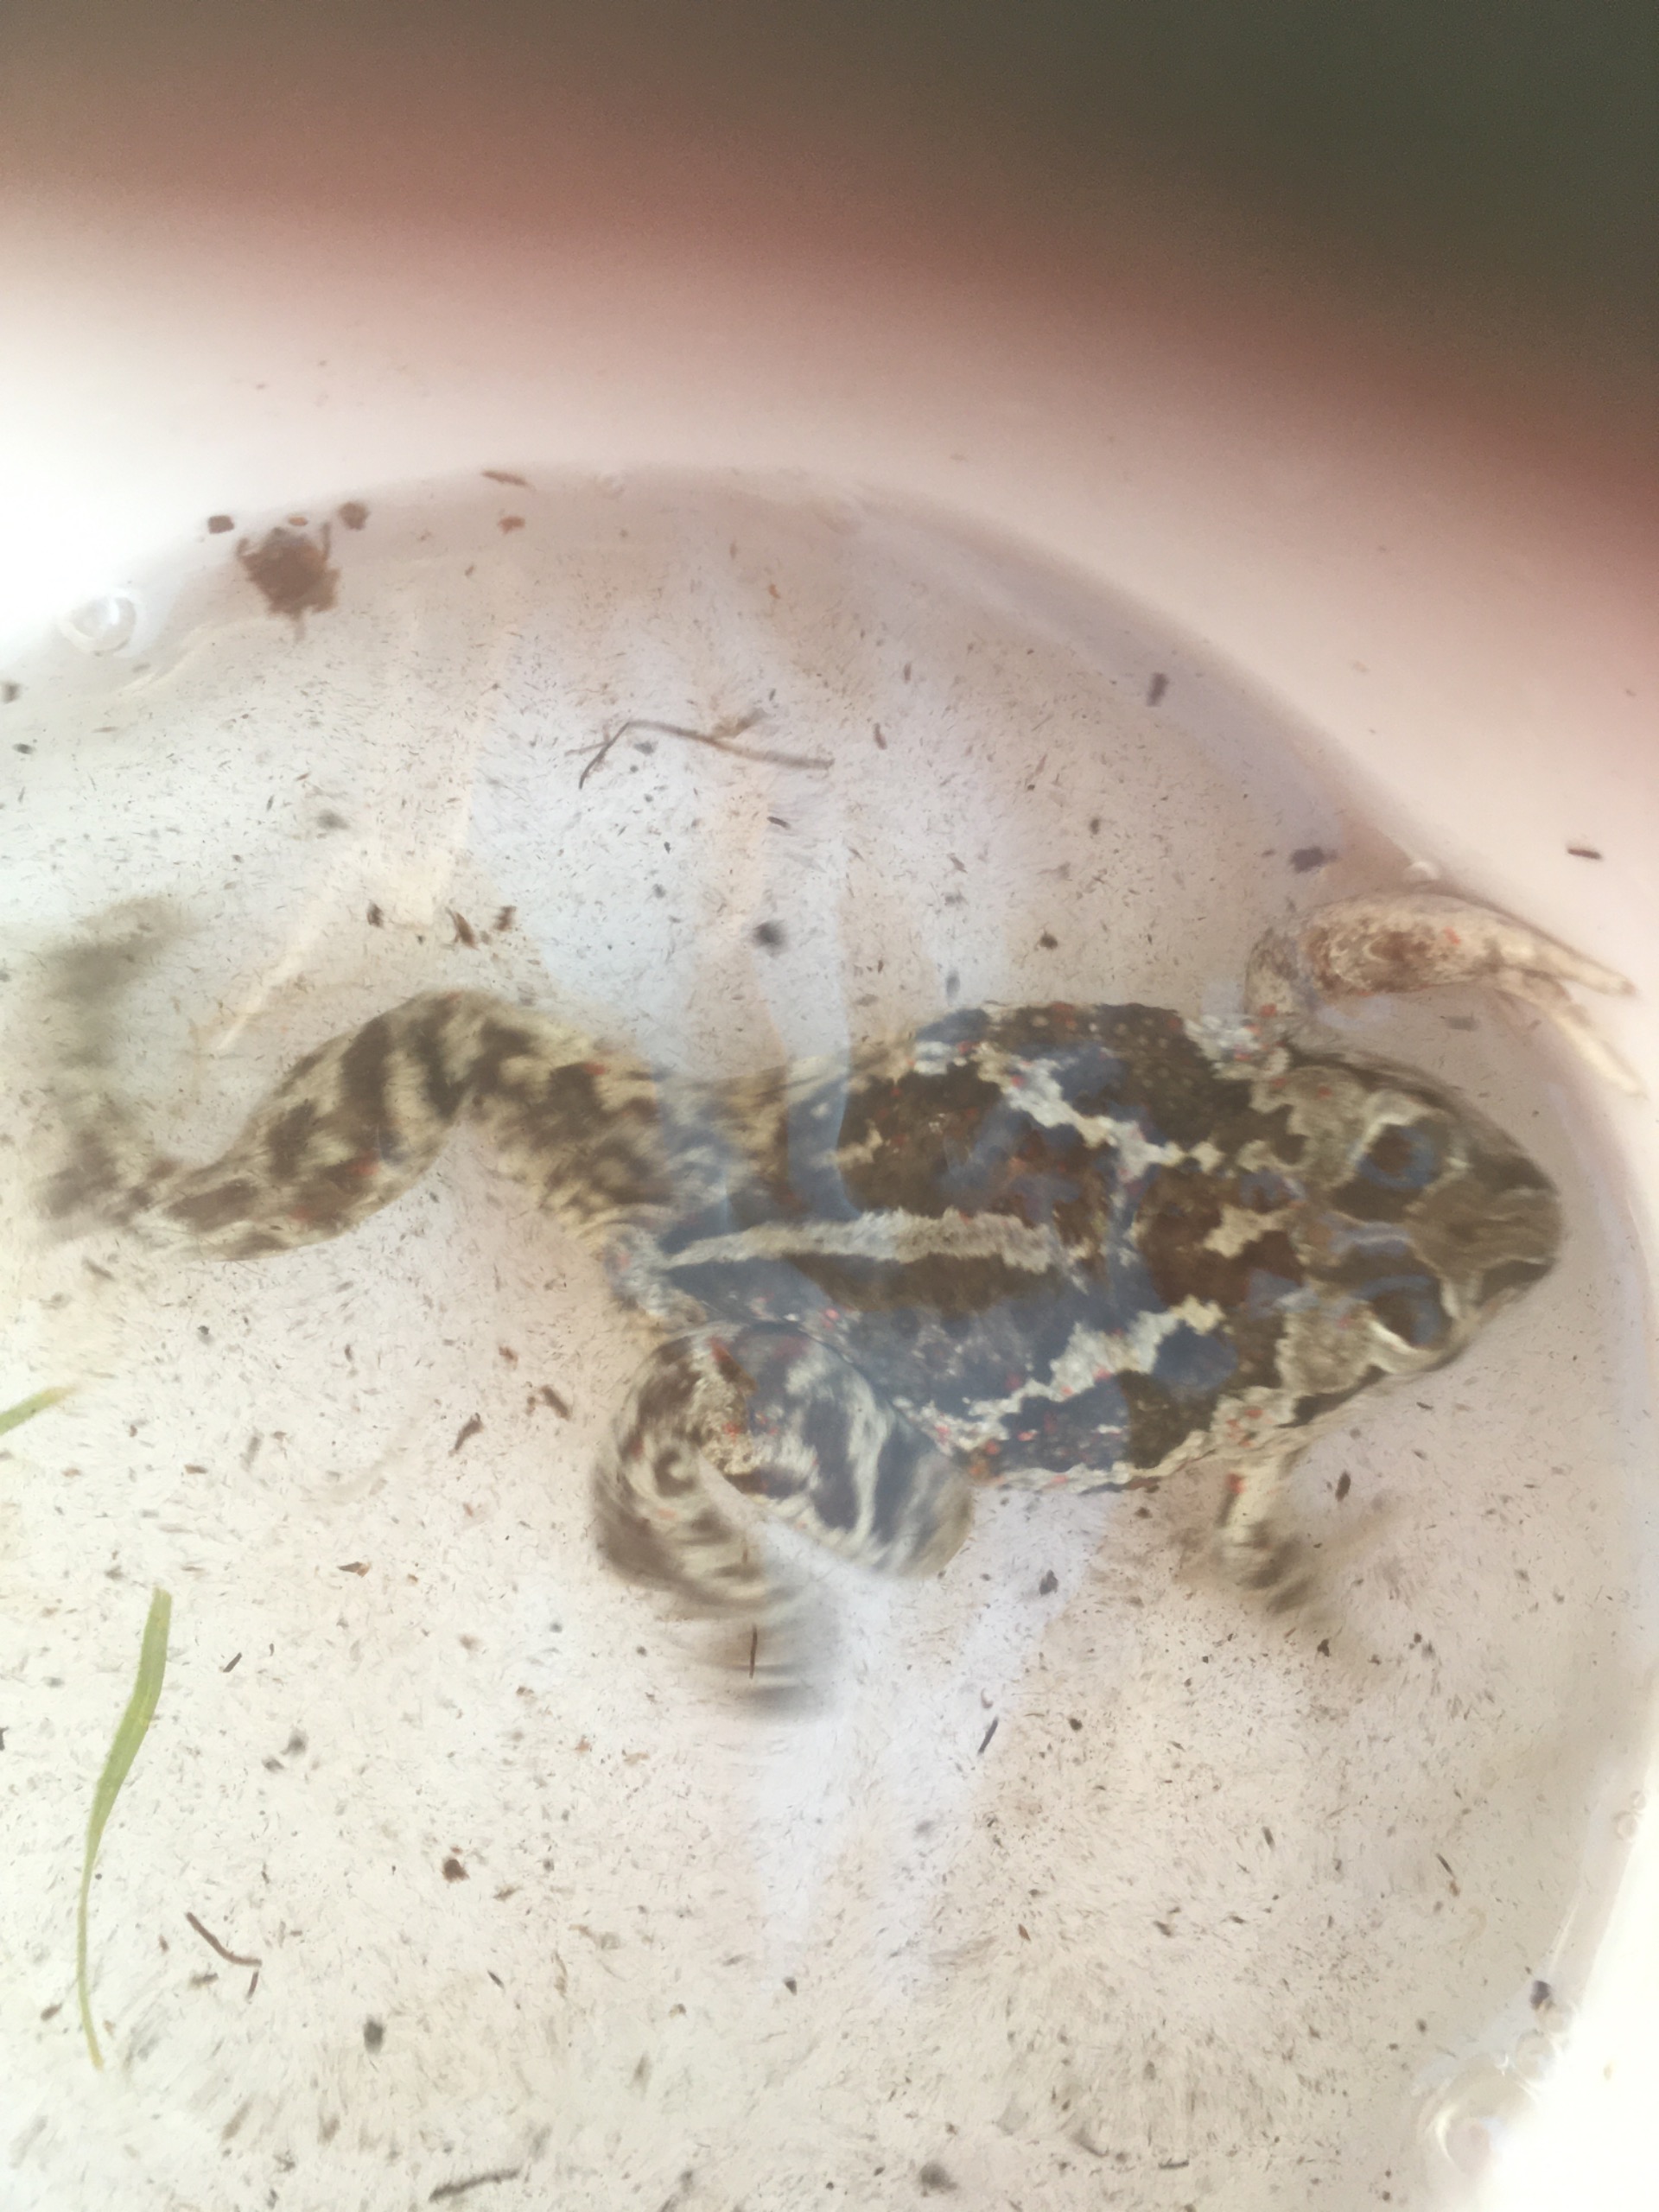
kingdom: Animalia
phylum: Chordata
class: Amphibia
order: Anura
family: Pelobatidae
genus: Pelobates
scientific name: Pelobates fuscus
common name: Løgfrø
